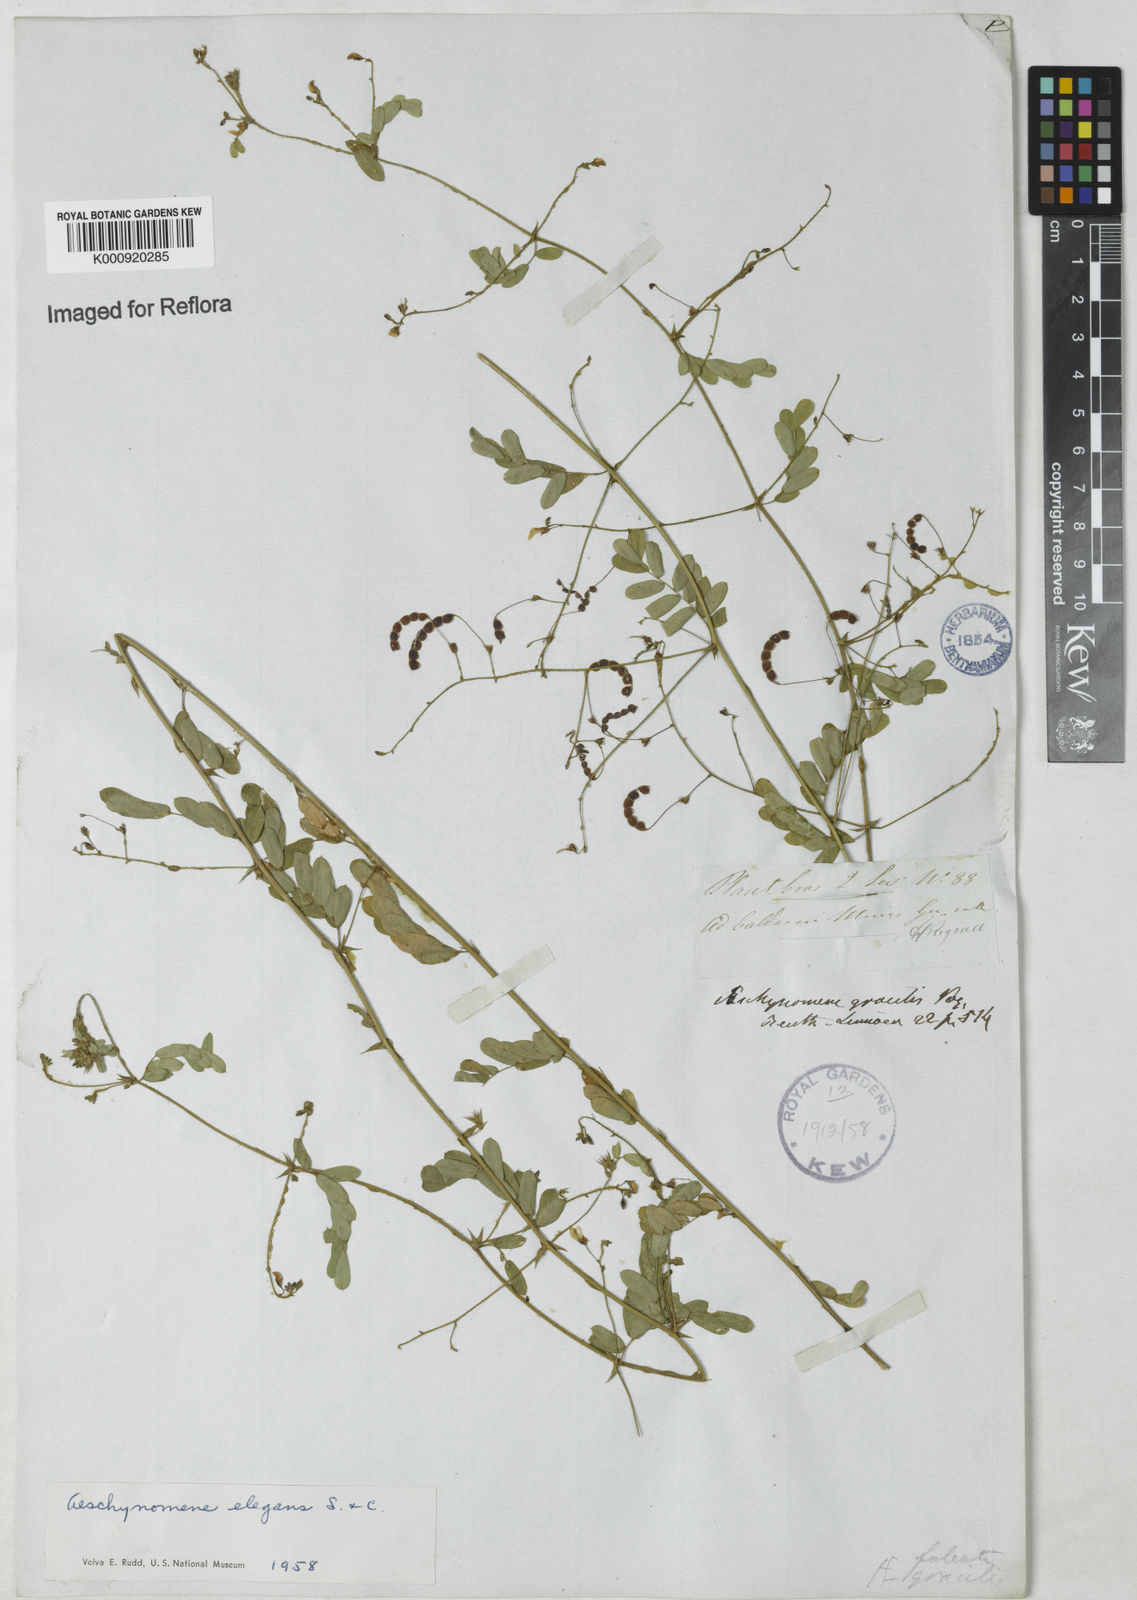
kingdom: Plantae
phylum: Tracheophyta
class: Magnoliopsida
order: Fabales
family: Fabaceae
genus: Ctenodon
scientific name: Ctenodon elegans
